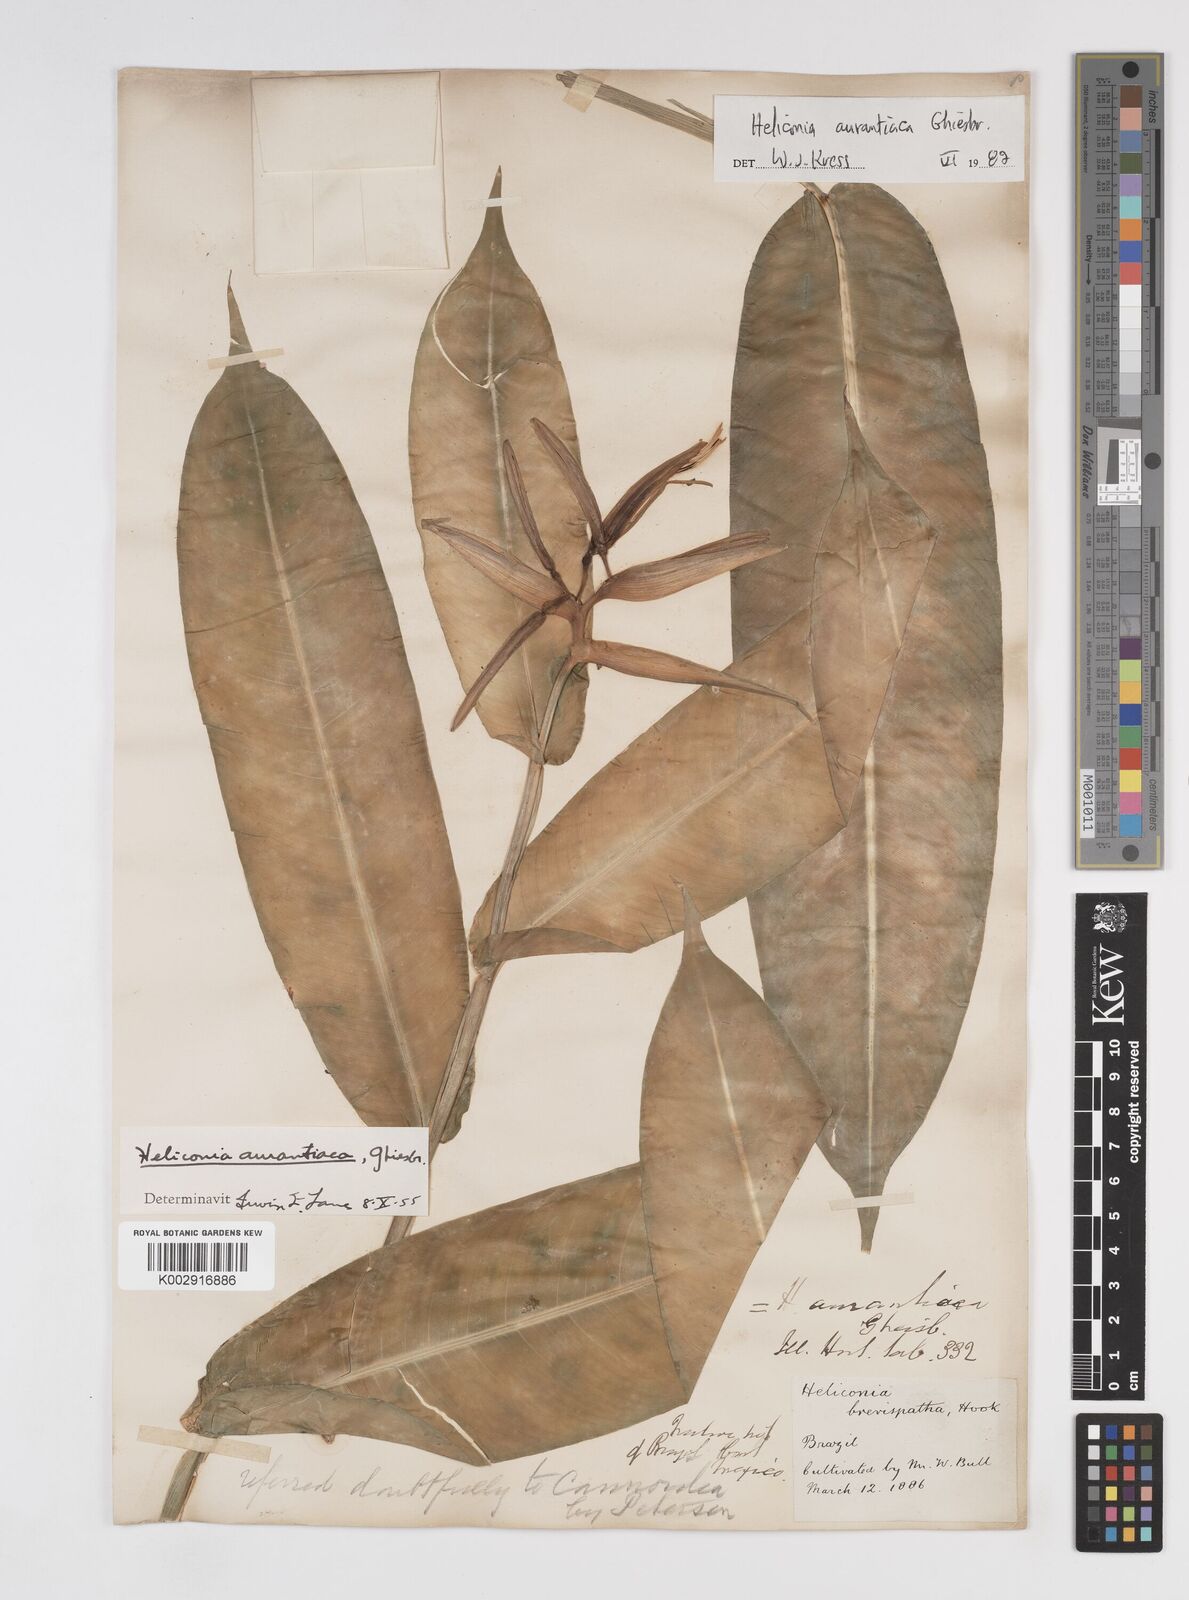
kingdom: Plantae
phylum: Tracheophyta
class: Liliopsida
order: Zingiberales
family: Heliconiaceae
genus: Heliconia
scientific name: Heliconia aurantiaca
